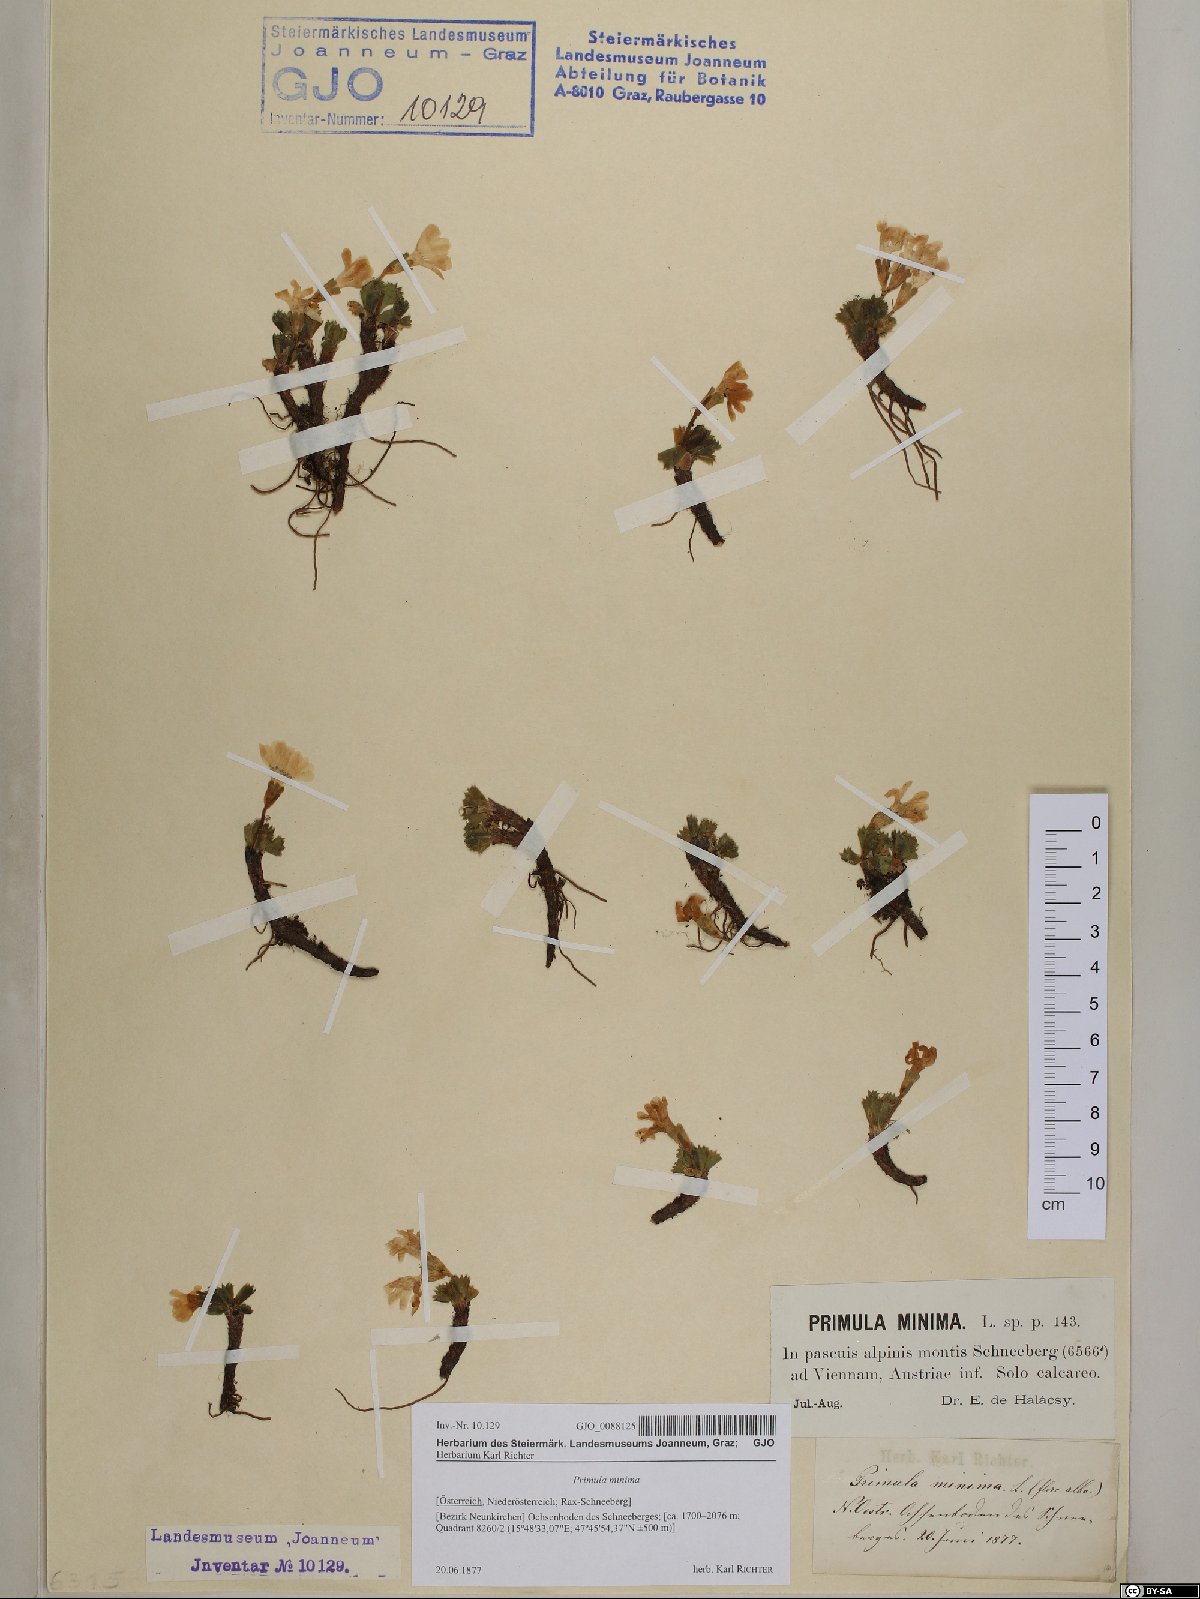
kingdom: Plantae
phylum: Tracheophyta
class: Magnoliopsida
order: Ericales
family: Primulaceae
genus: Primula
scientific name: Primula minima
